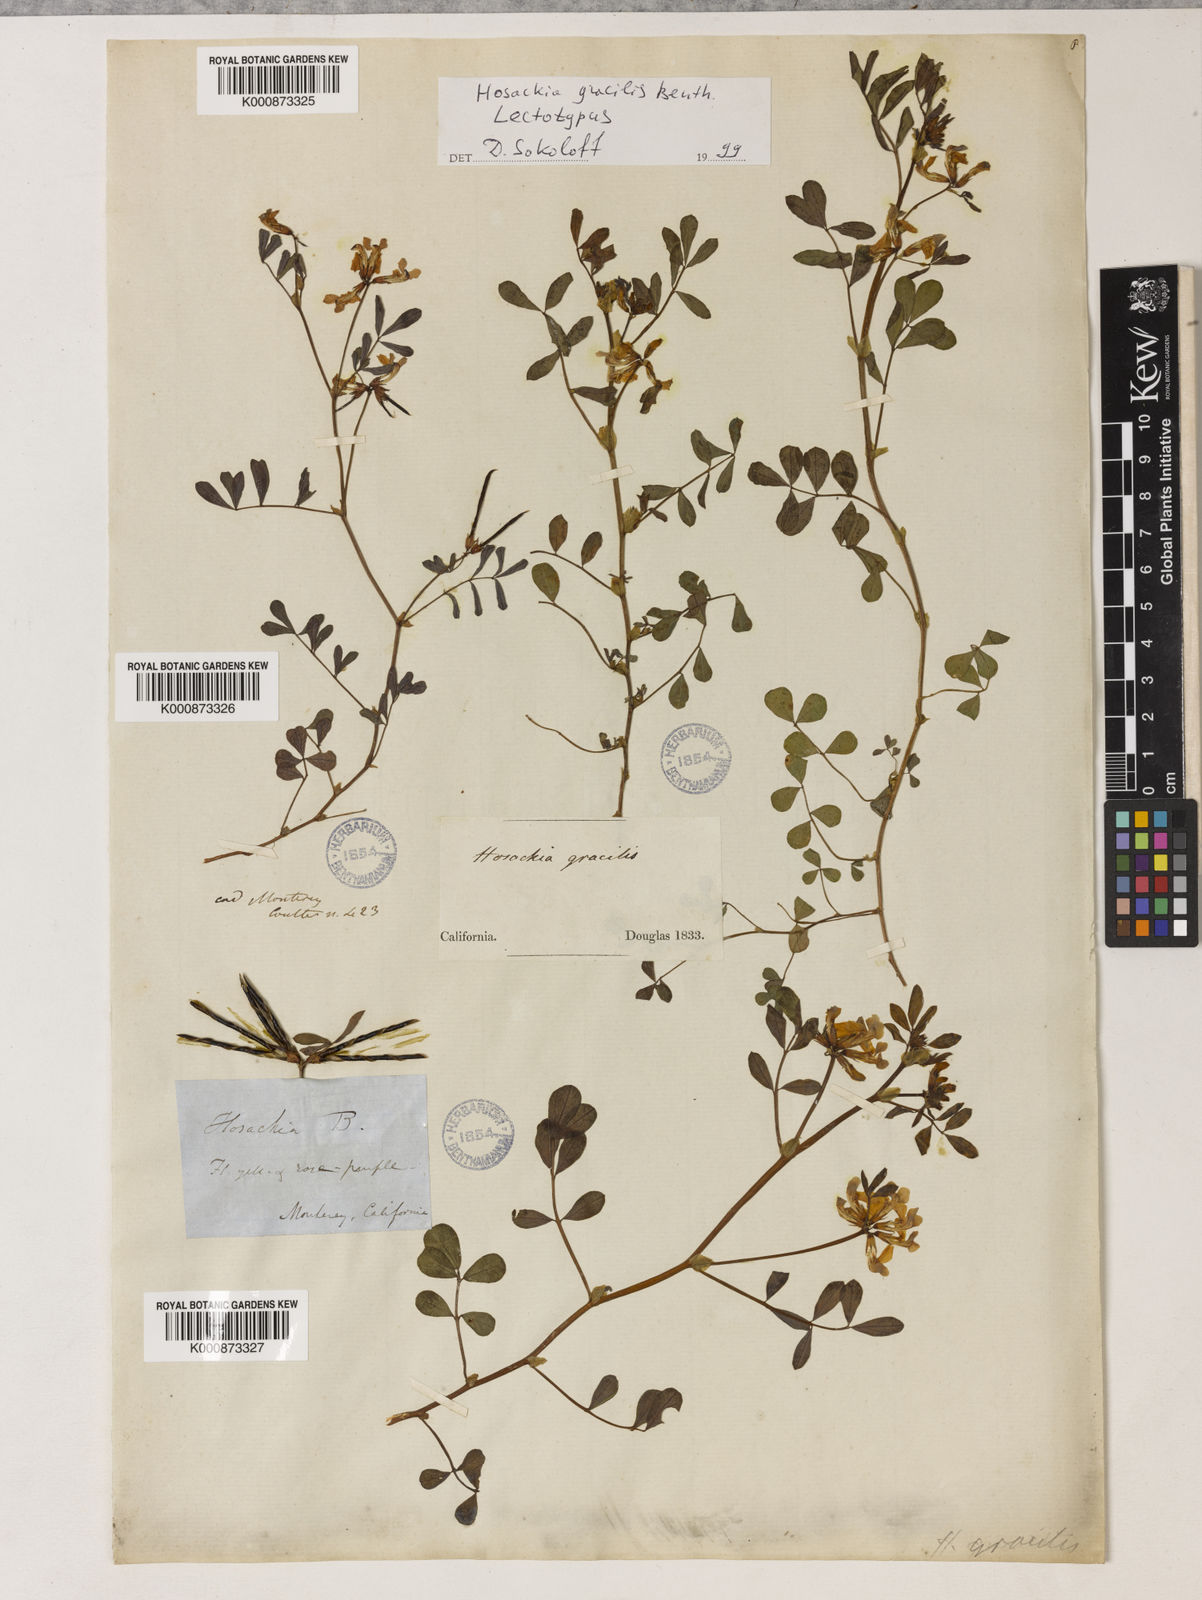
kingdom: Plantae
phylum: Tracheophyta
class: Magnoliopsida
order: Fabales
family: Fabaceae
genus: Hosackia
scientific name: Hosackia gracilis
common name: Seaside bird's-foot lotus
